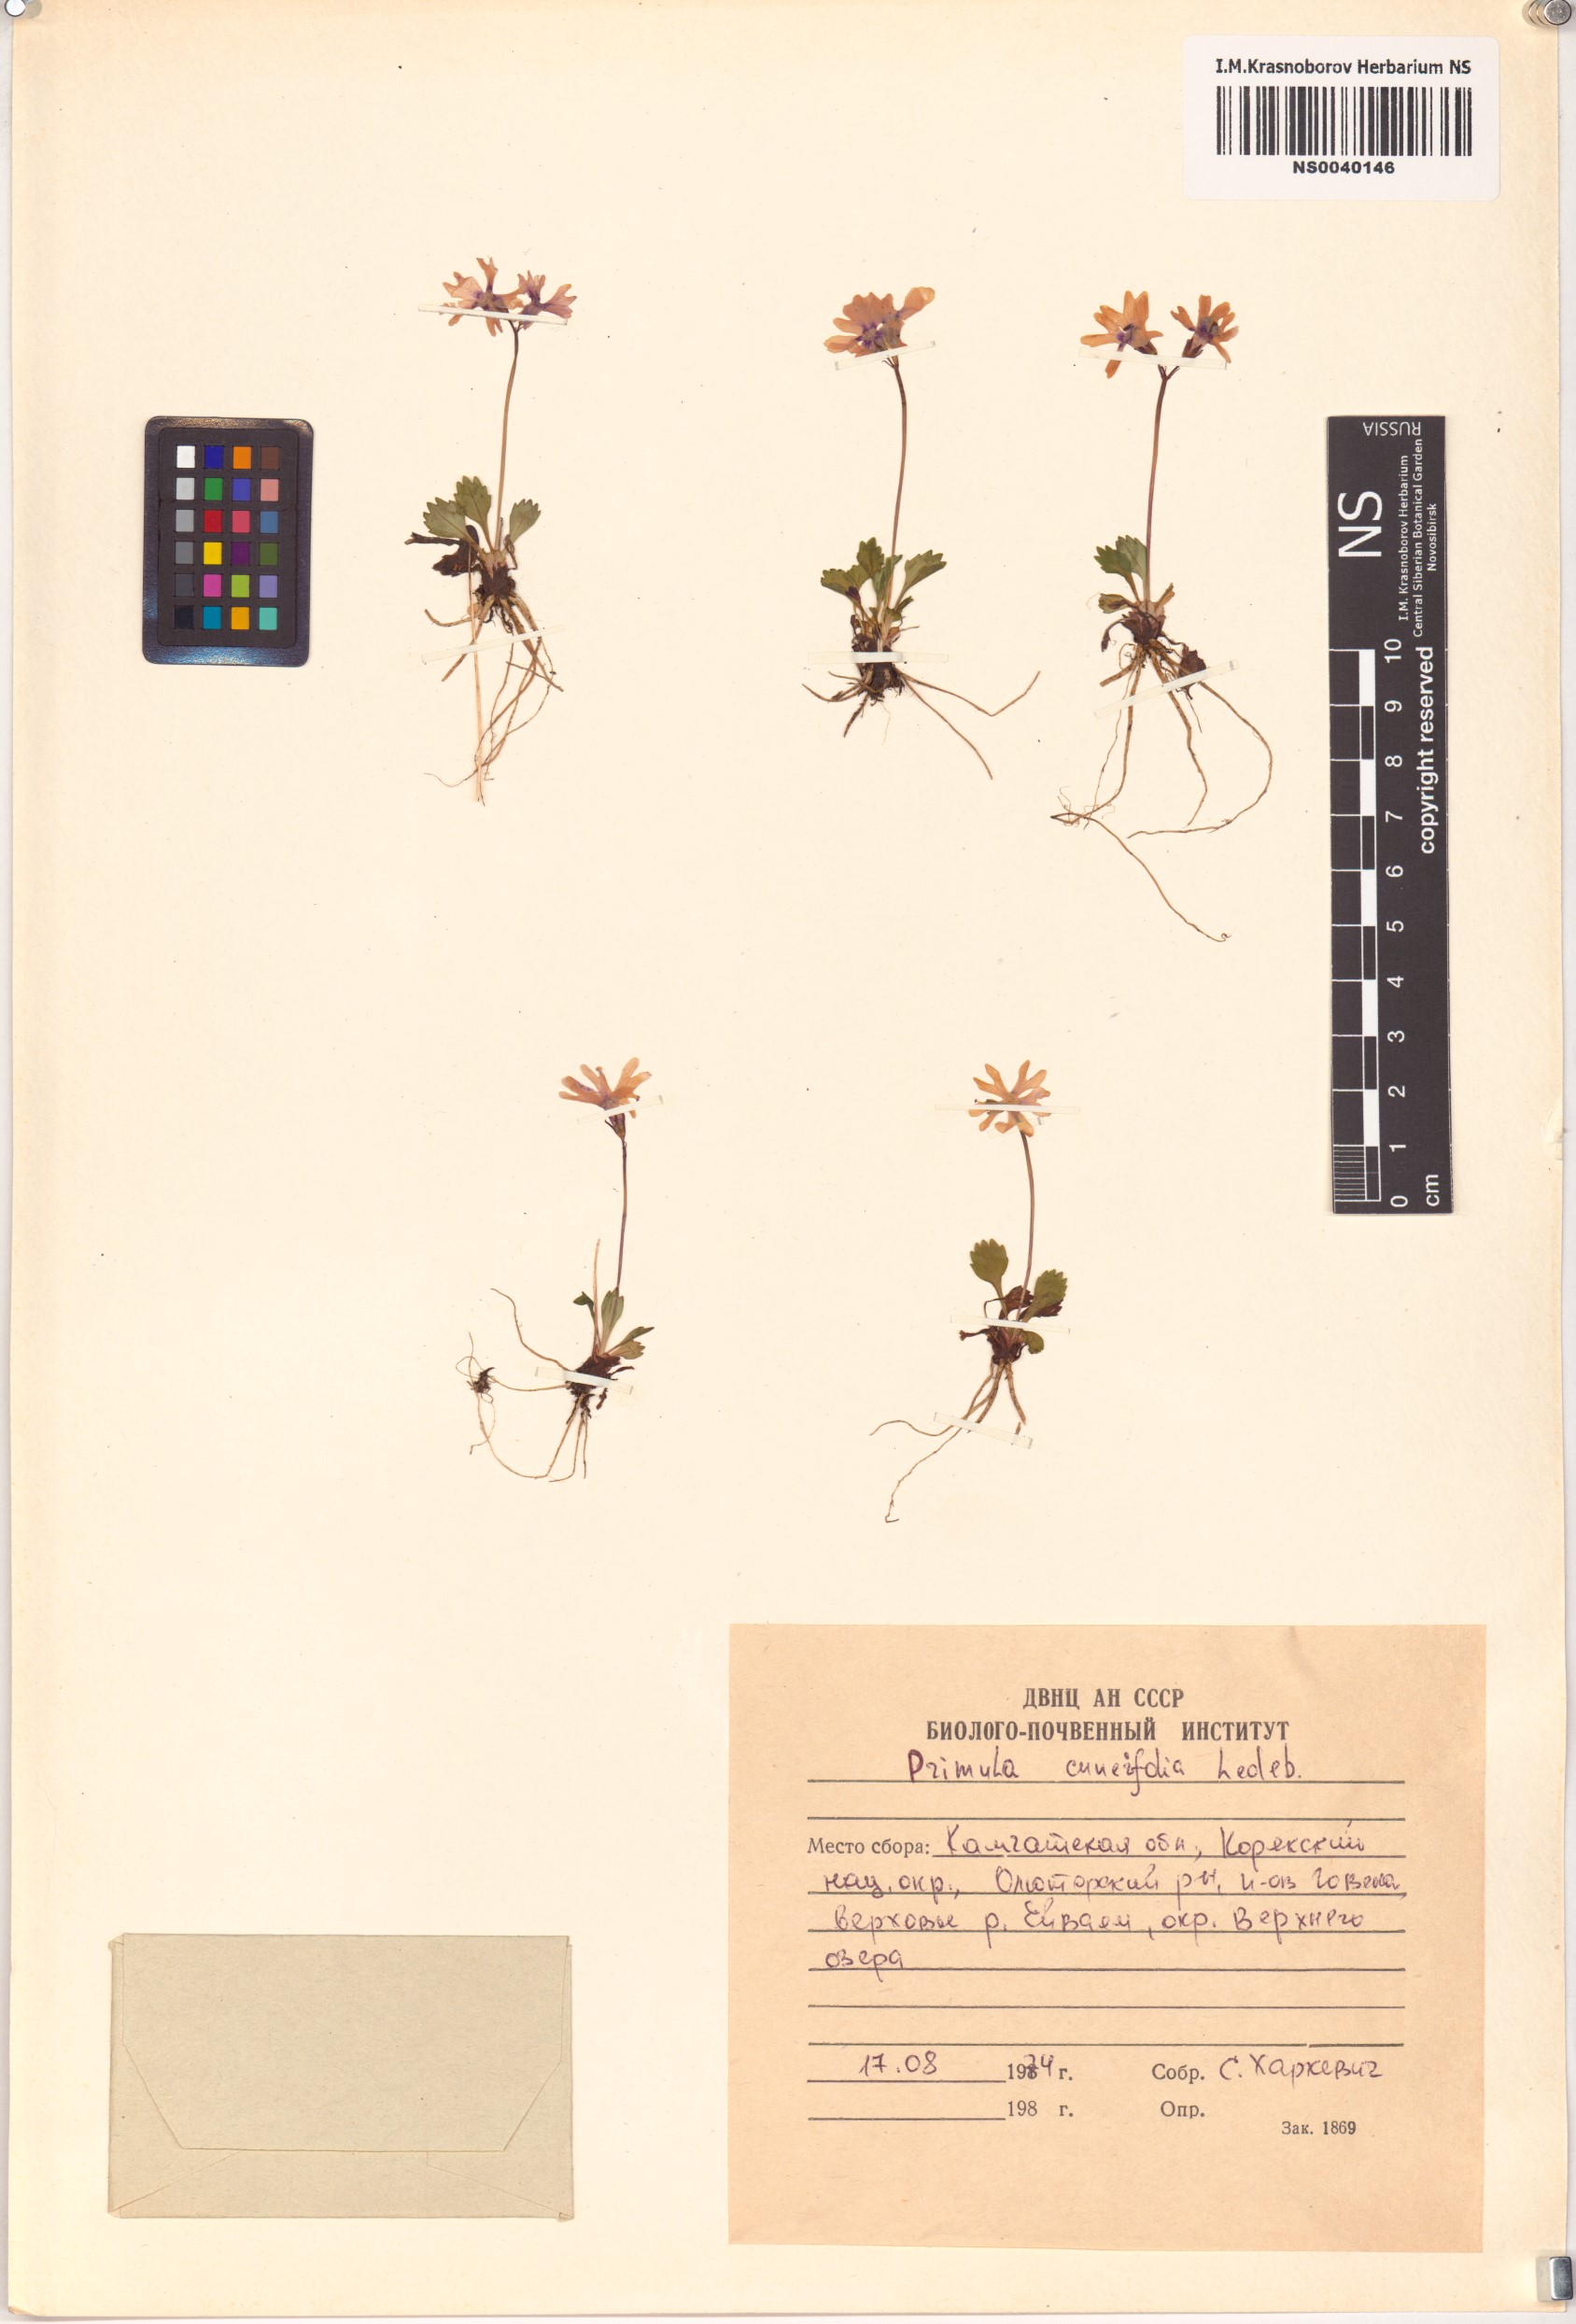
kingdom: Plantae
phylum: Tracheophyta
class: Magnoliopsida
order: Ericales
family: Primulaceae
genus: Primula
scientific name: Primula cuneifolia
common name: Wedge-leaved primrose
